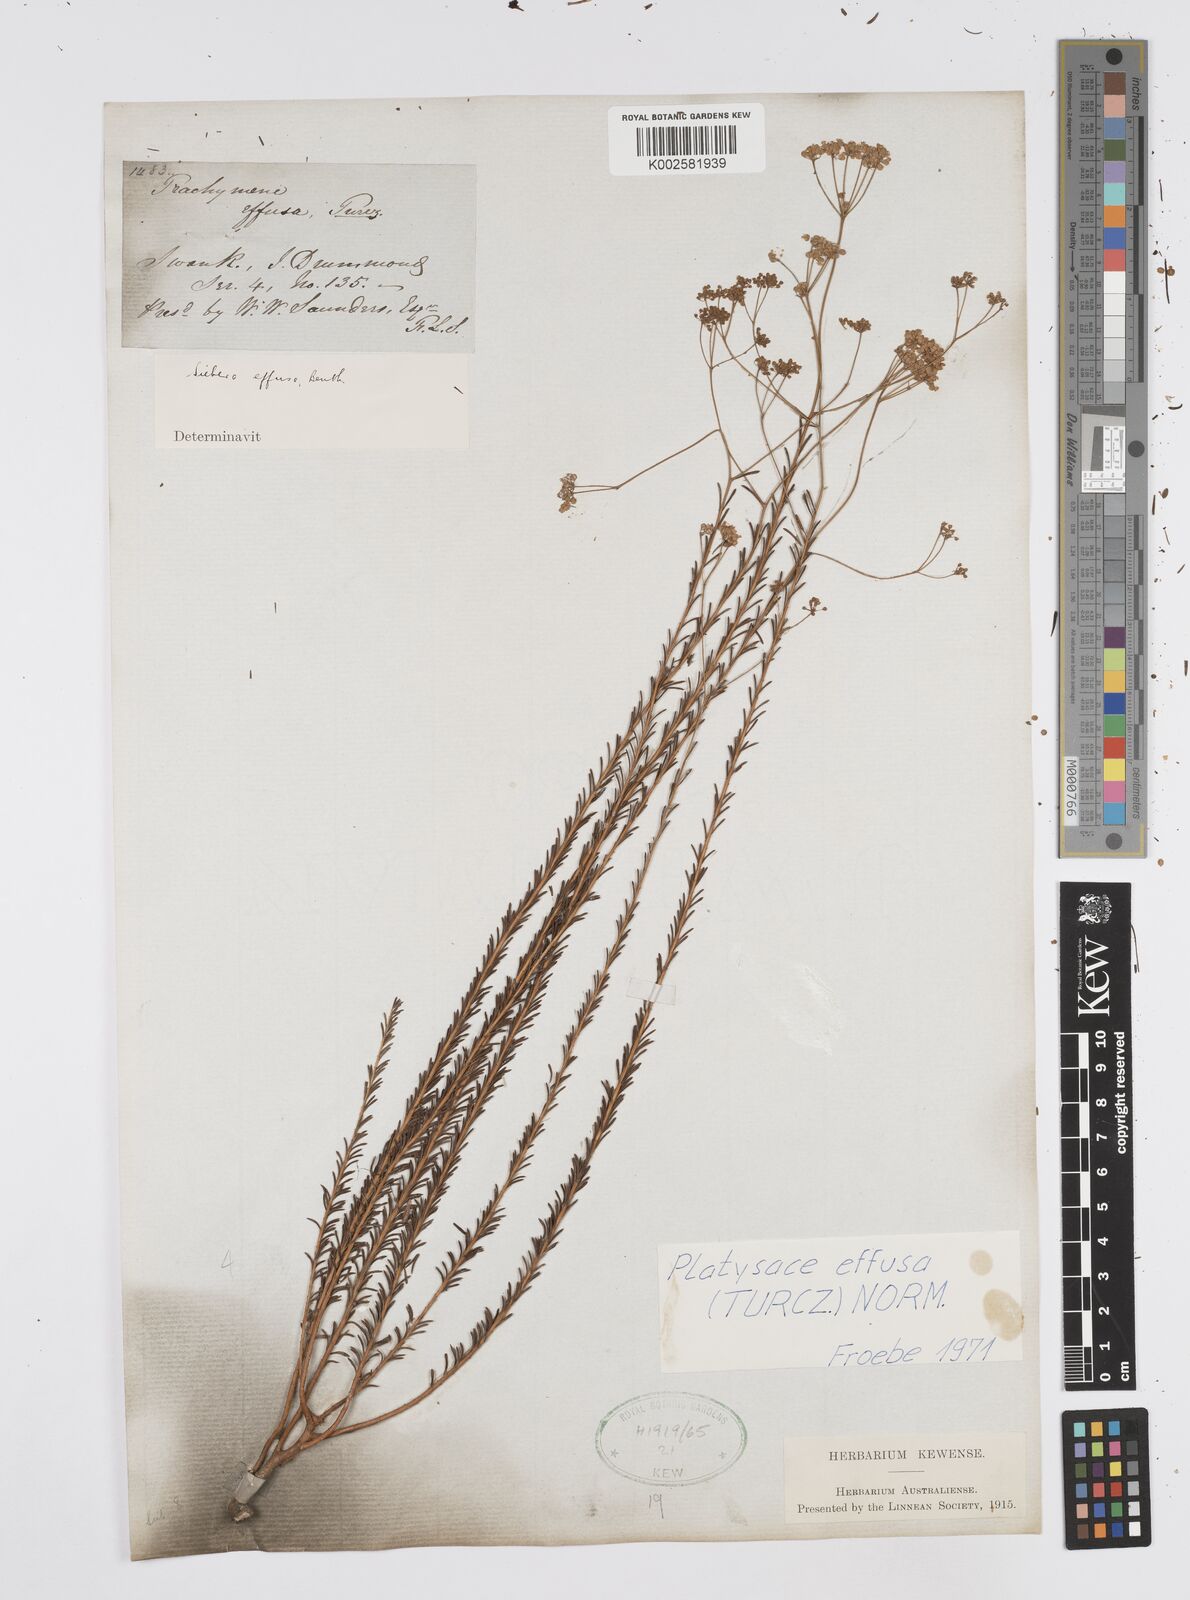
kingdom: Plantae
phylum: Tracheophyta
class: Magnoliopsida
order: Apiales
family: Apiaceae
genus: Platysace
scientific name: Platysace effusa
